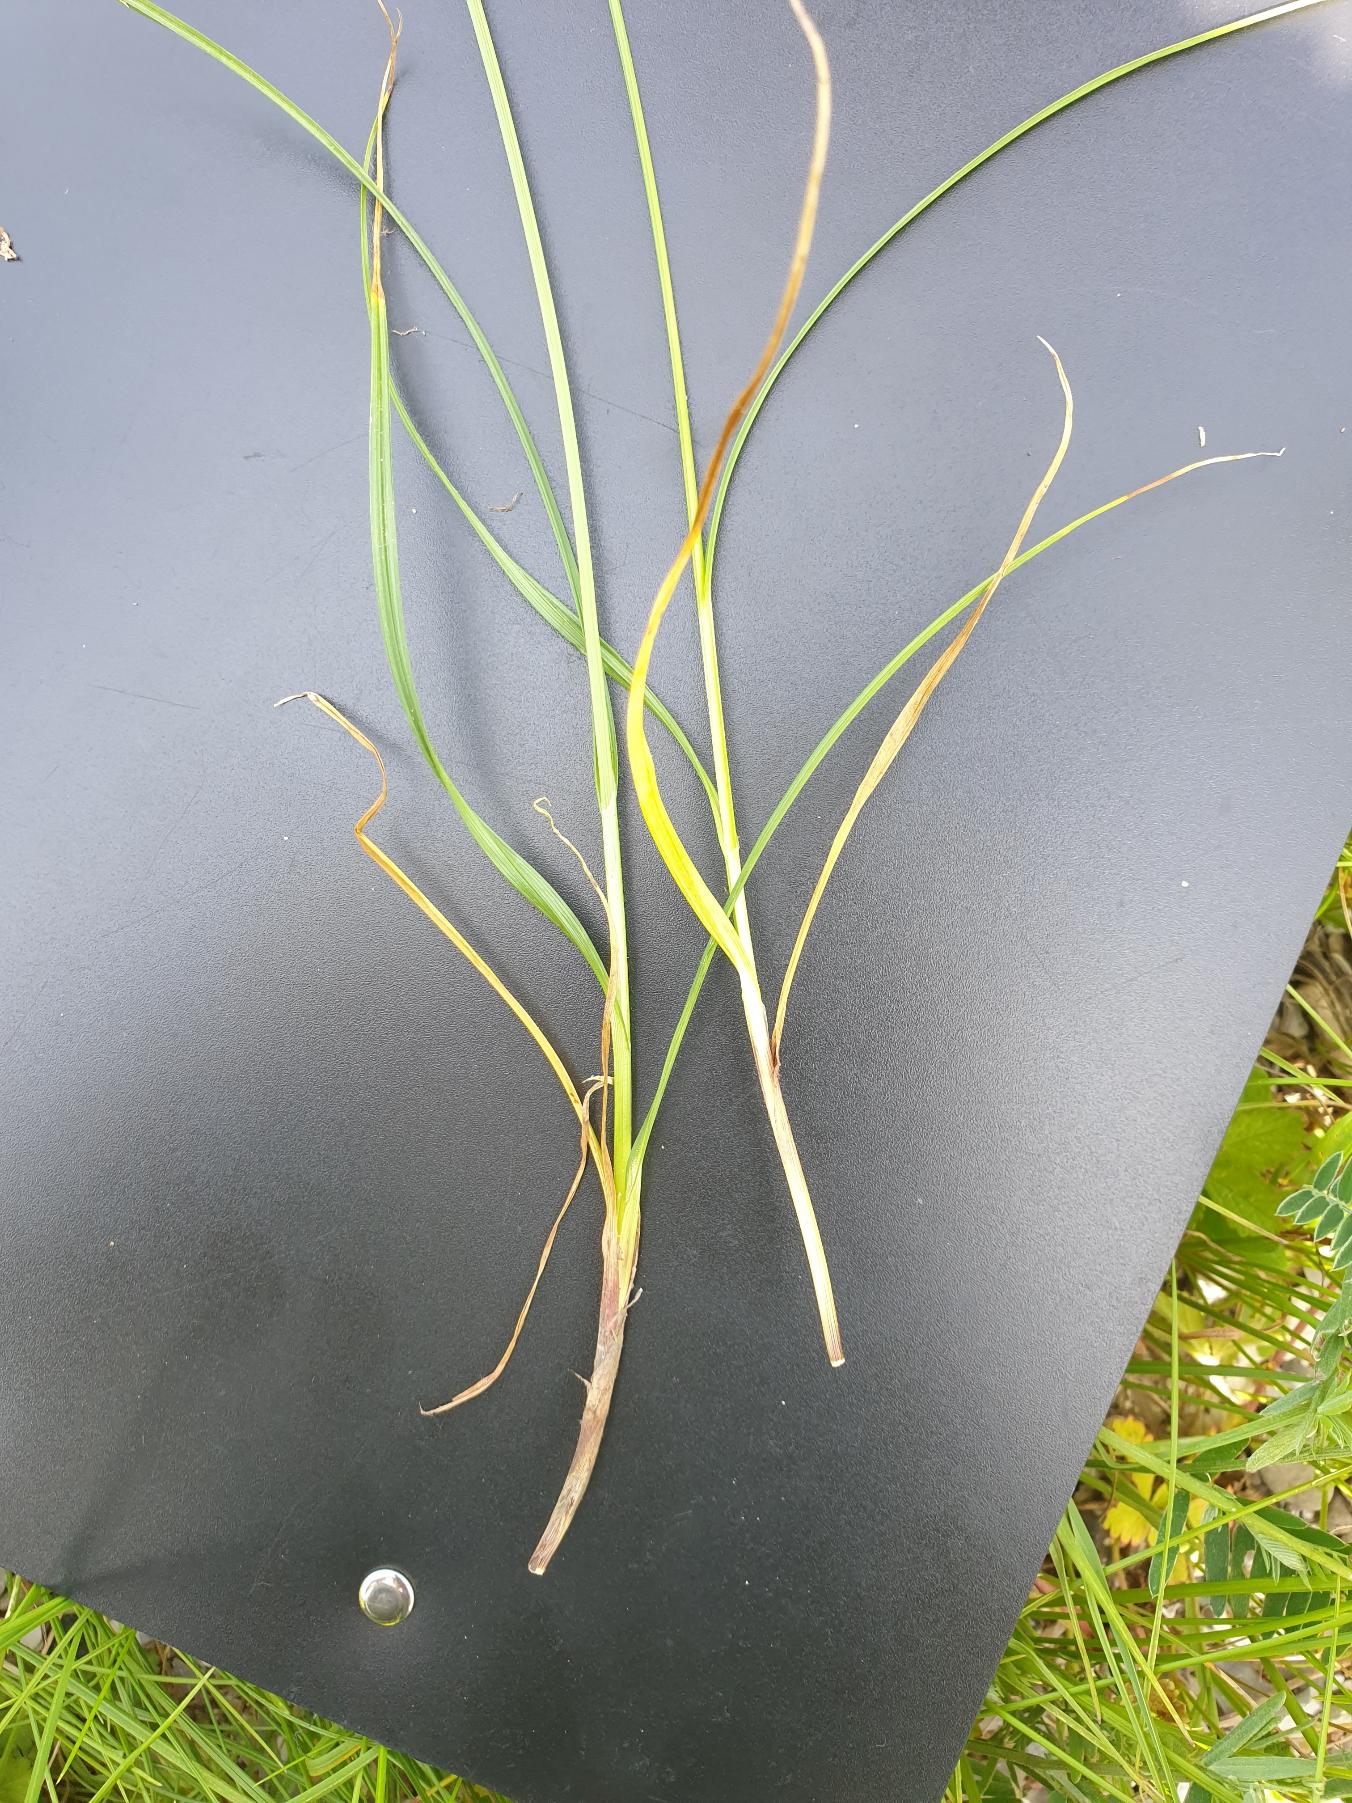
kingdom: Plantae
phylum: Tracheophyta
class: Liliopsida
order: Poales
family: Cyperaceae
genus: Carex
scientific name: Carex spicata
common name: Spidskapslet star
